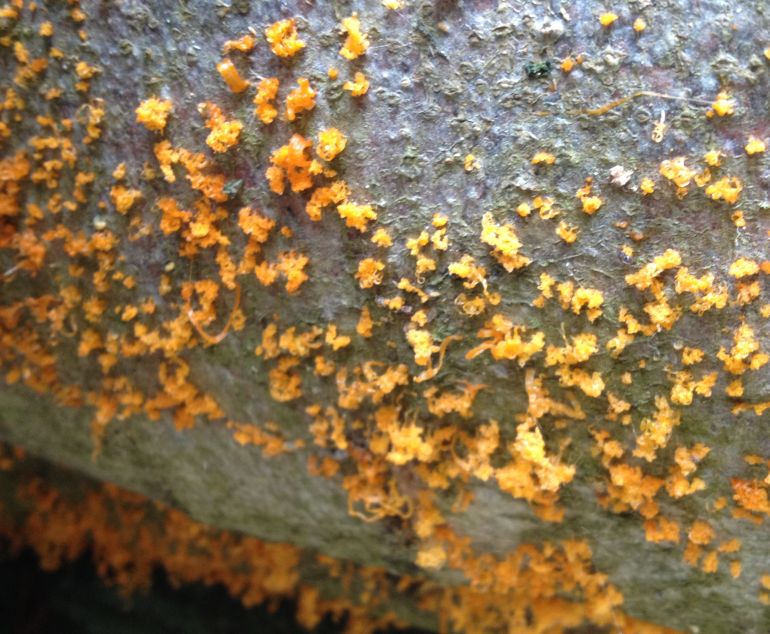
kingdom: Fungi
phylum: Ascomycota
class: Sordariomycetes
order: Xylariales
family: Diatrypaceae
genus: Eutypella
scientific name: Eutypella quaternata
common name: bøge-korsprik
